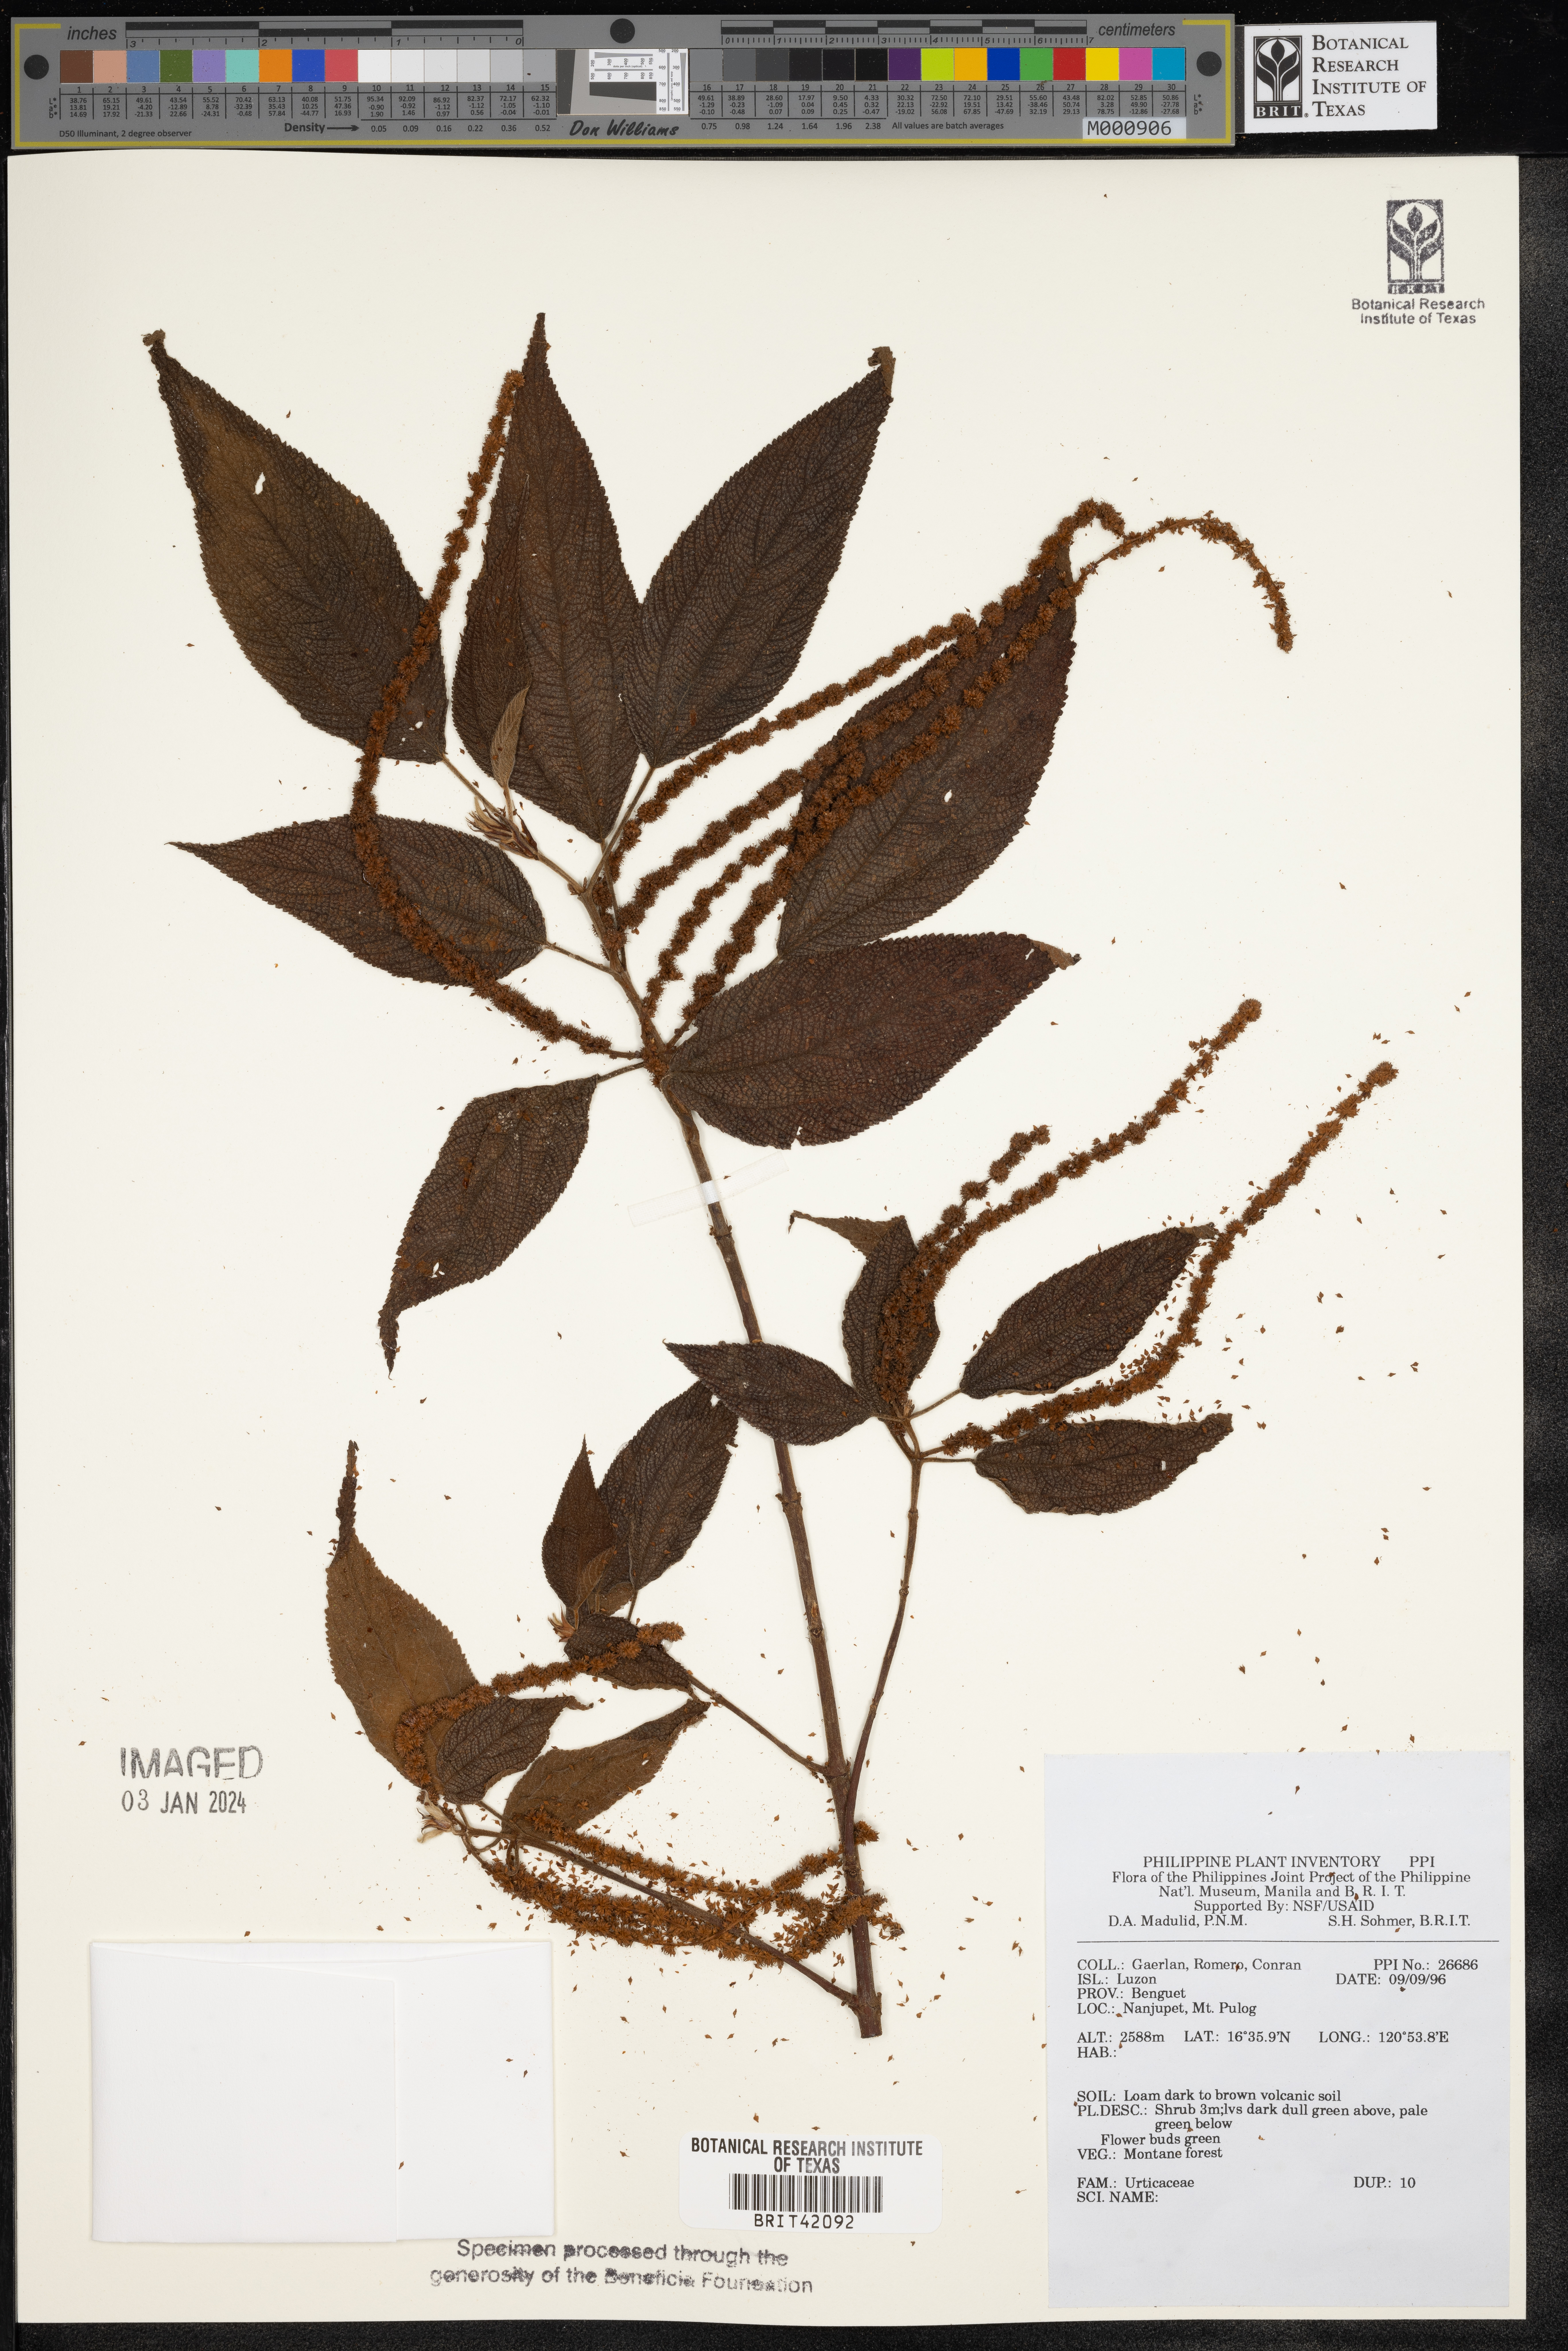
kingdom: Plantae
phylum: Tracheophyta
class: Magnoliopsida
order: Rosales
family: Urticaceae
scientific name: Urticaceae
